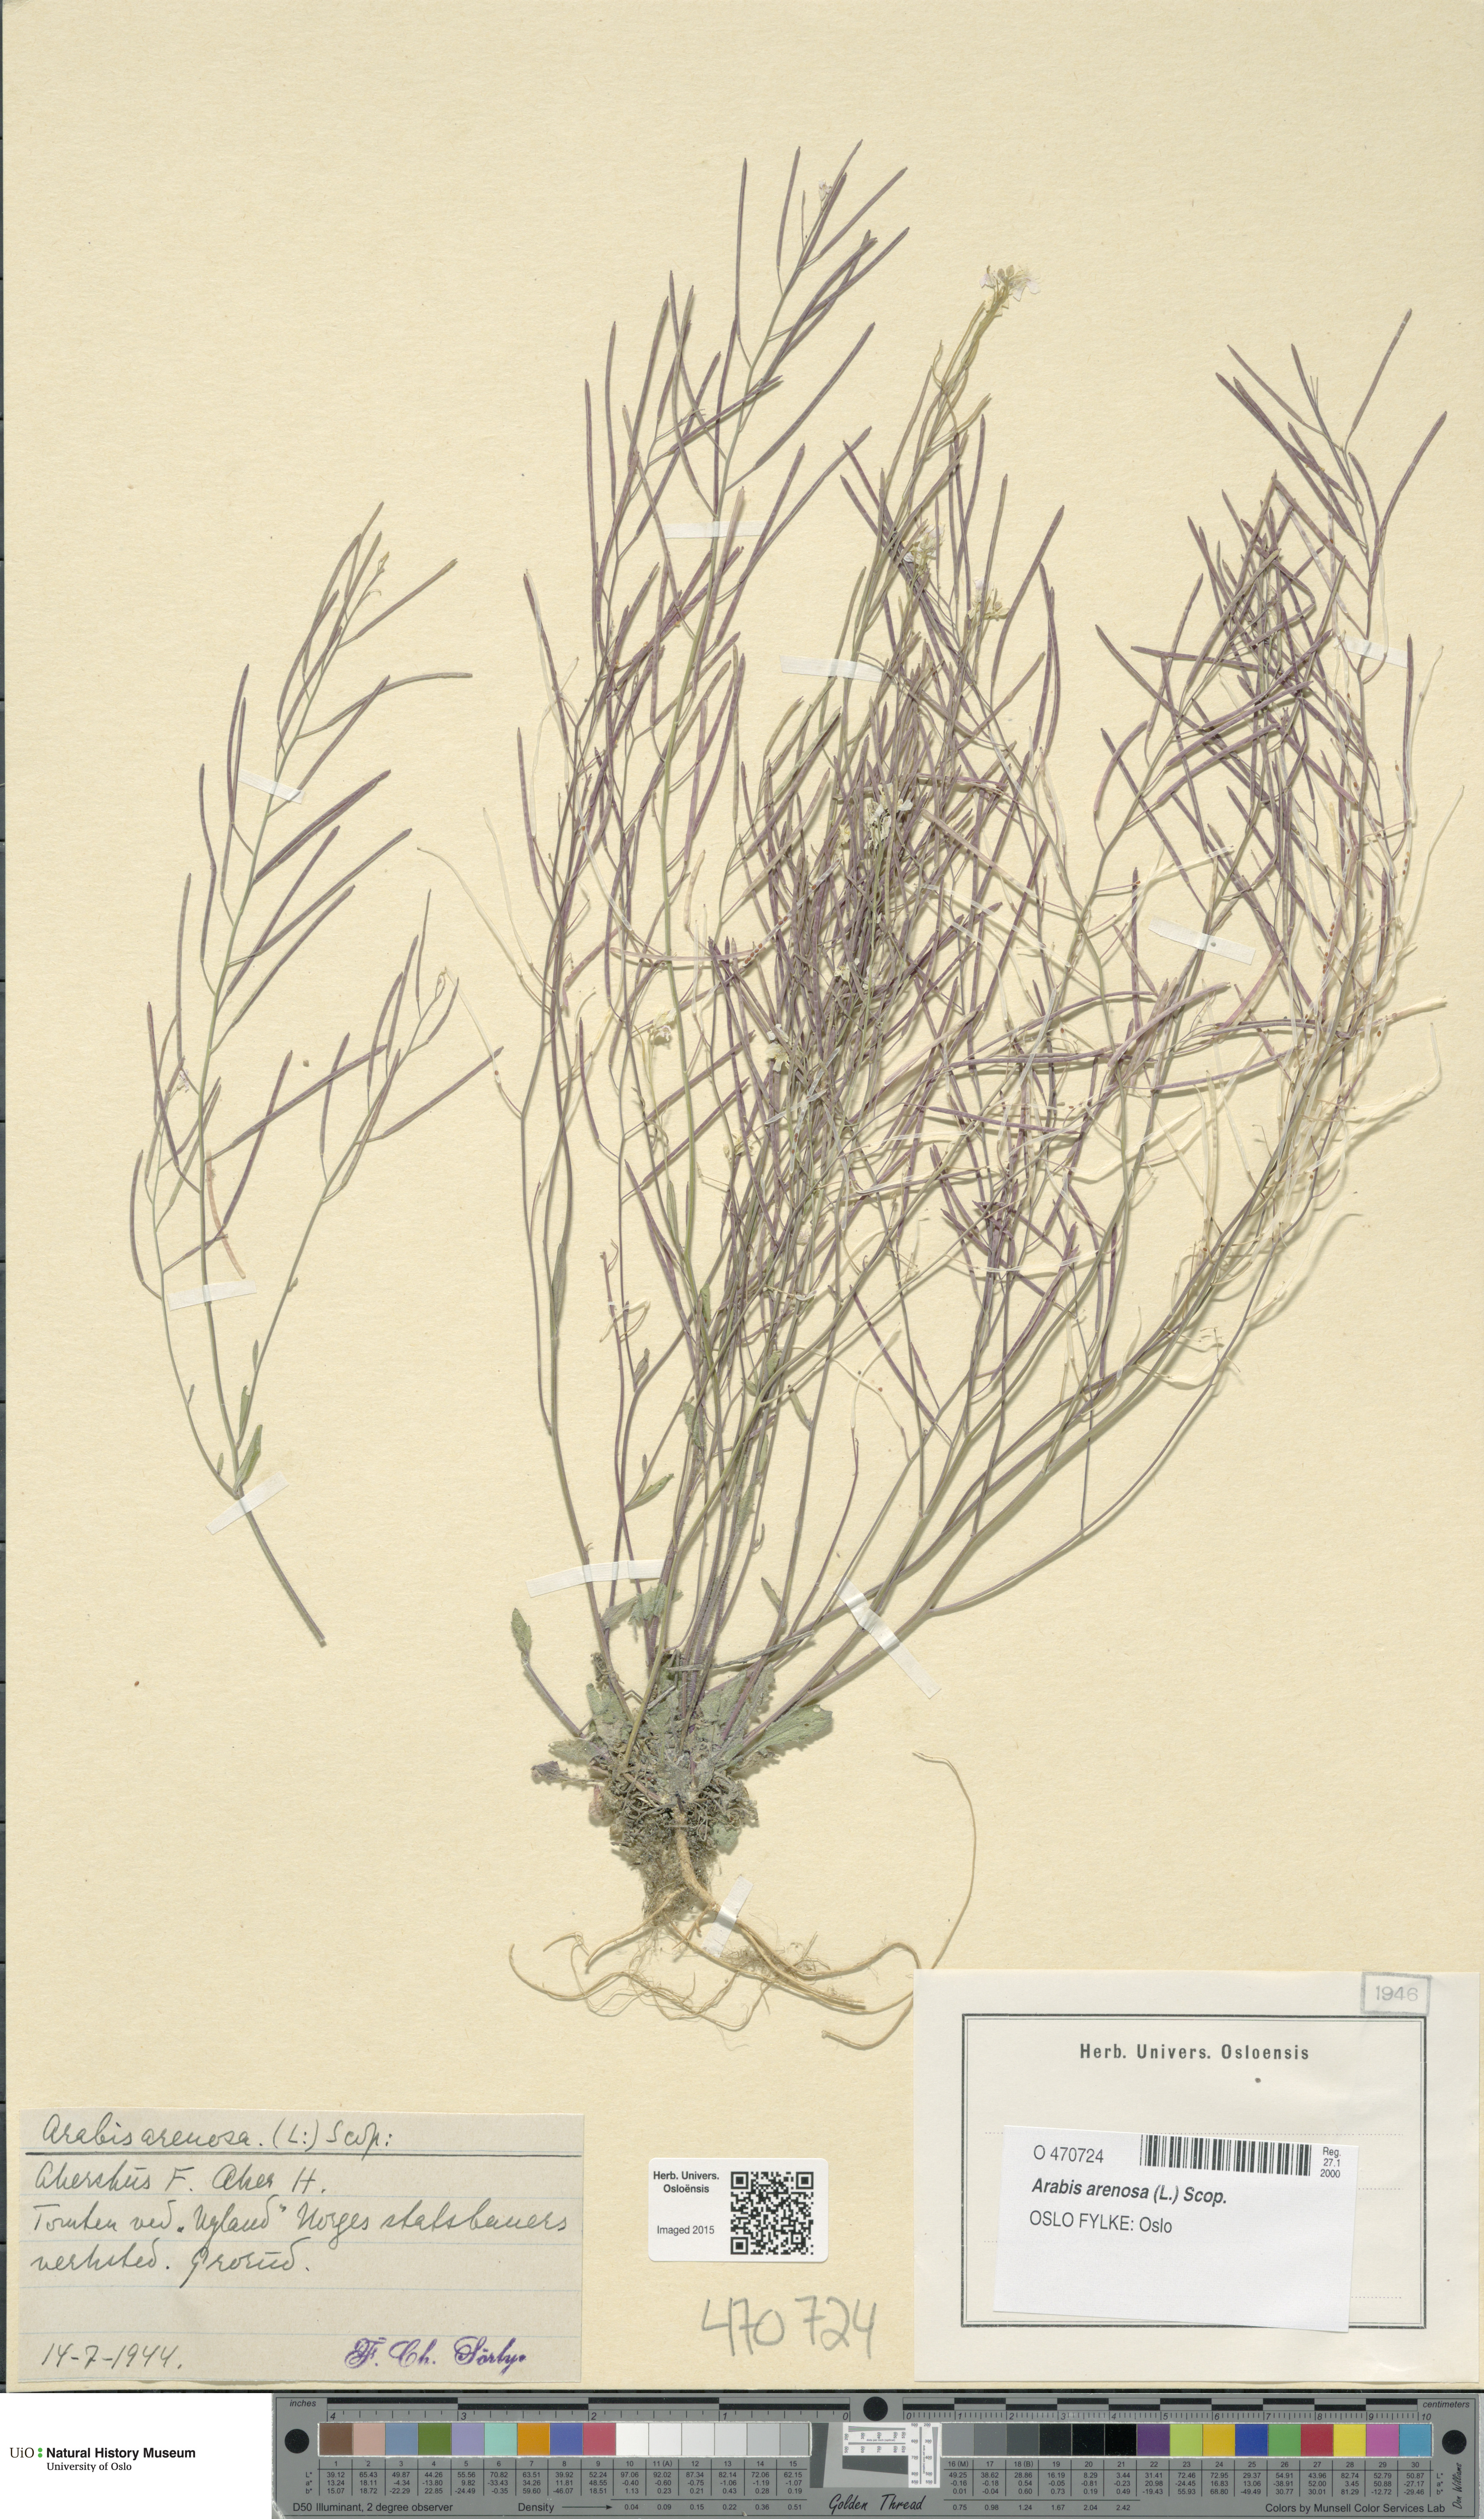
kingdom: Plantae
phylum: Tracheophyta
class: Magnoliopsida
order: Brassicales
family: Brassicaceae
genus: Arabidopsis
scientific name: Arabidopsis arenosa
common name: Sand rock-cress
